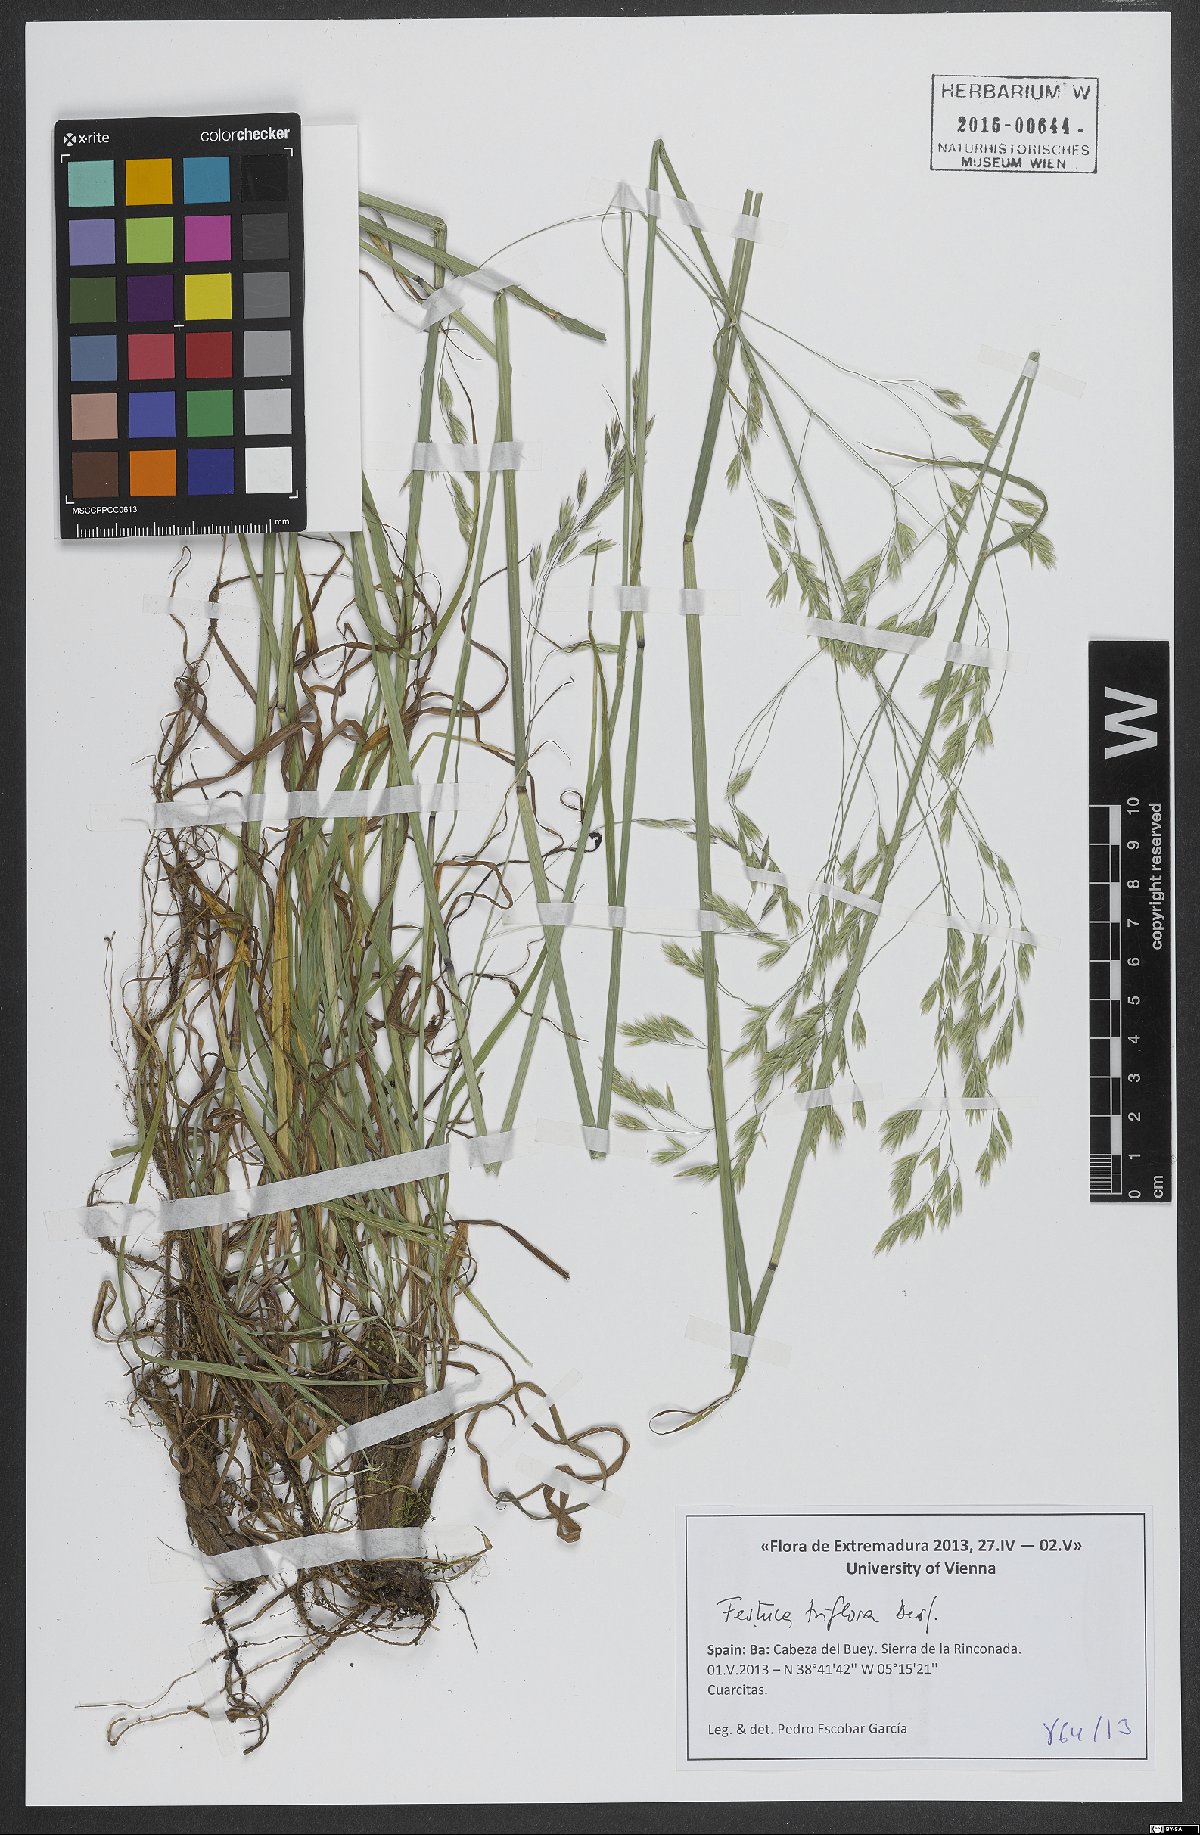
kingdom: Plantae
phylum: Tracheophyta
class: Liliopsida
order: Poales
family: Poaceae
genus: Patzkea
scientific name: Patzkea patula
